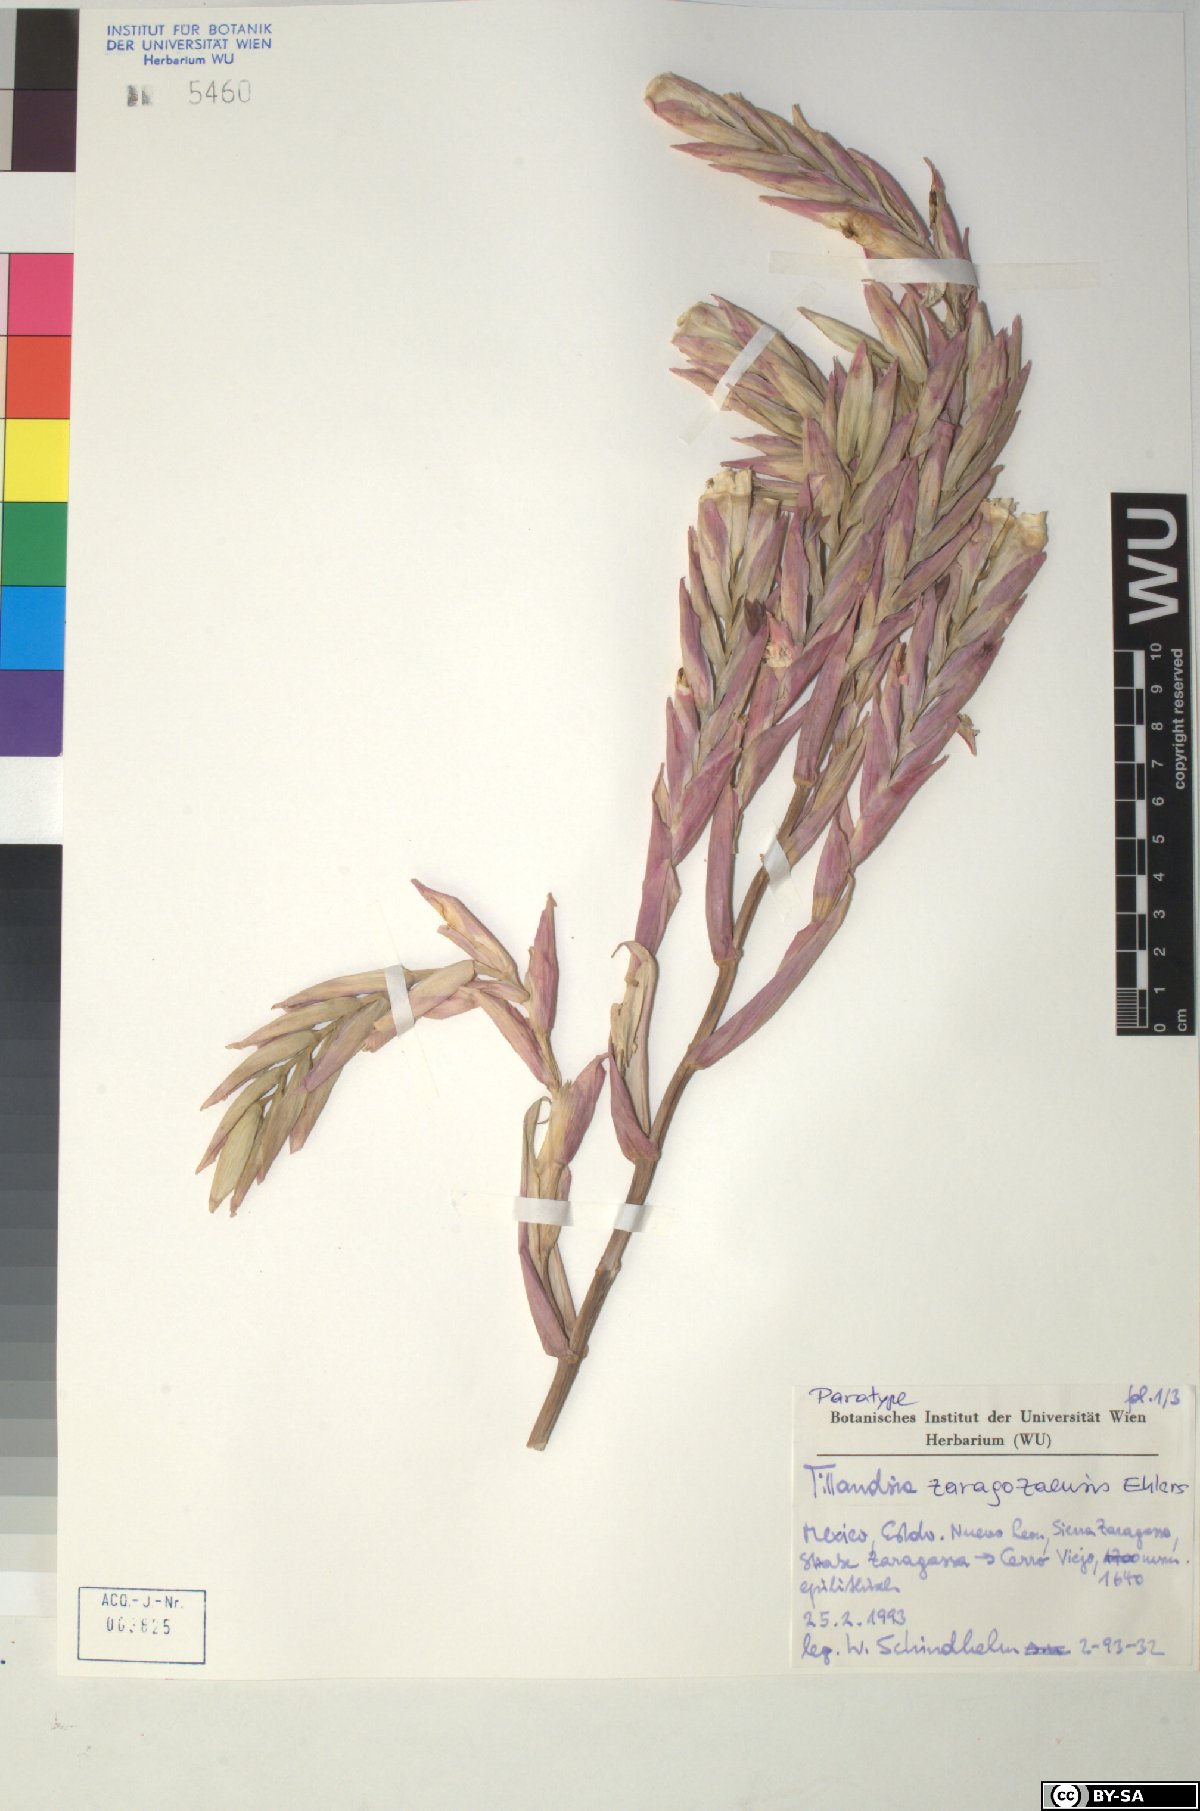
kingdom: Plantae
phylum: Tracheophyta
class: Liliopsida
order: Poales
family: Bromeliaceae
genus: Tillandsia
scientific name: Tillandsia zaragozaensis
